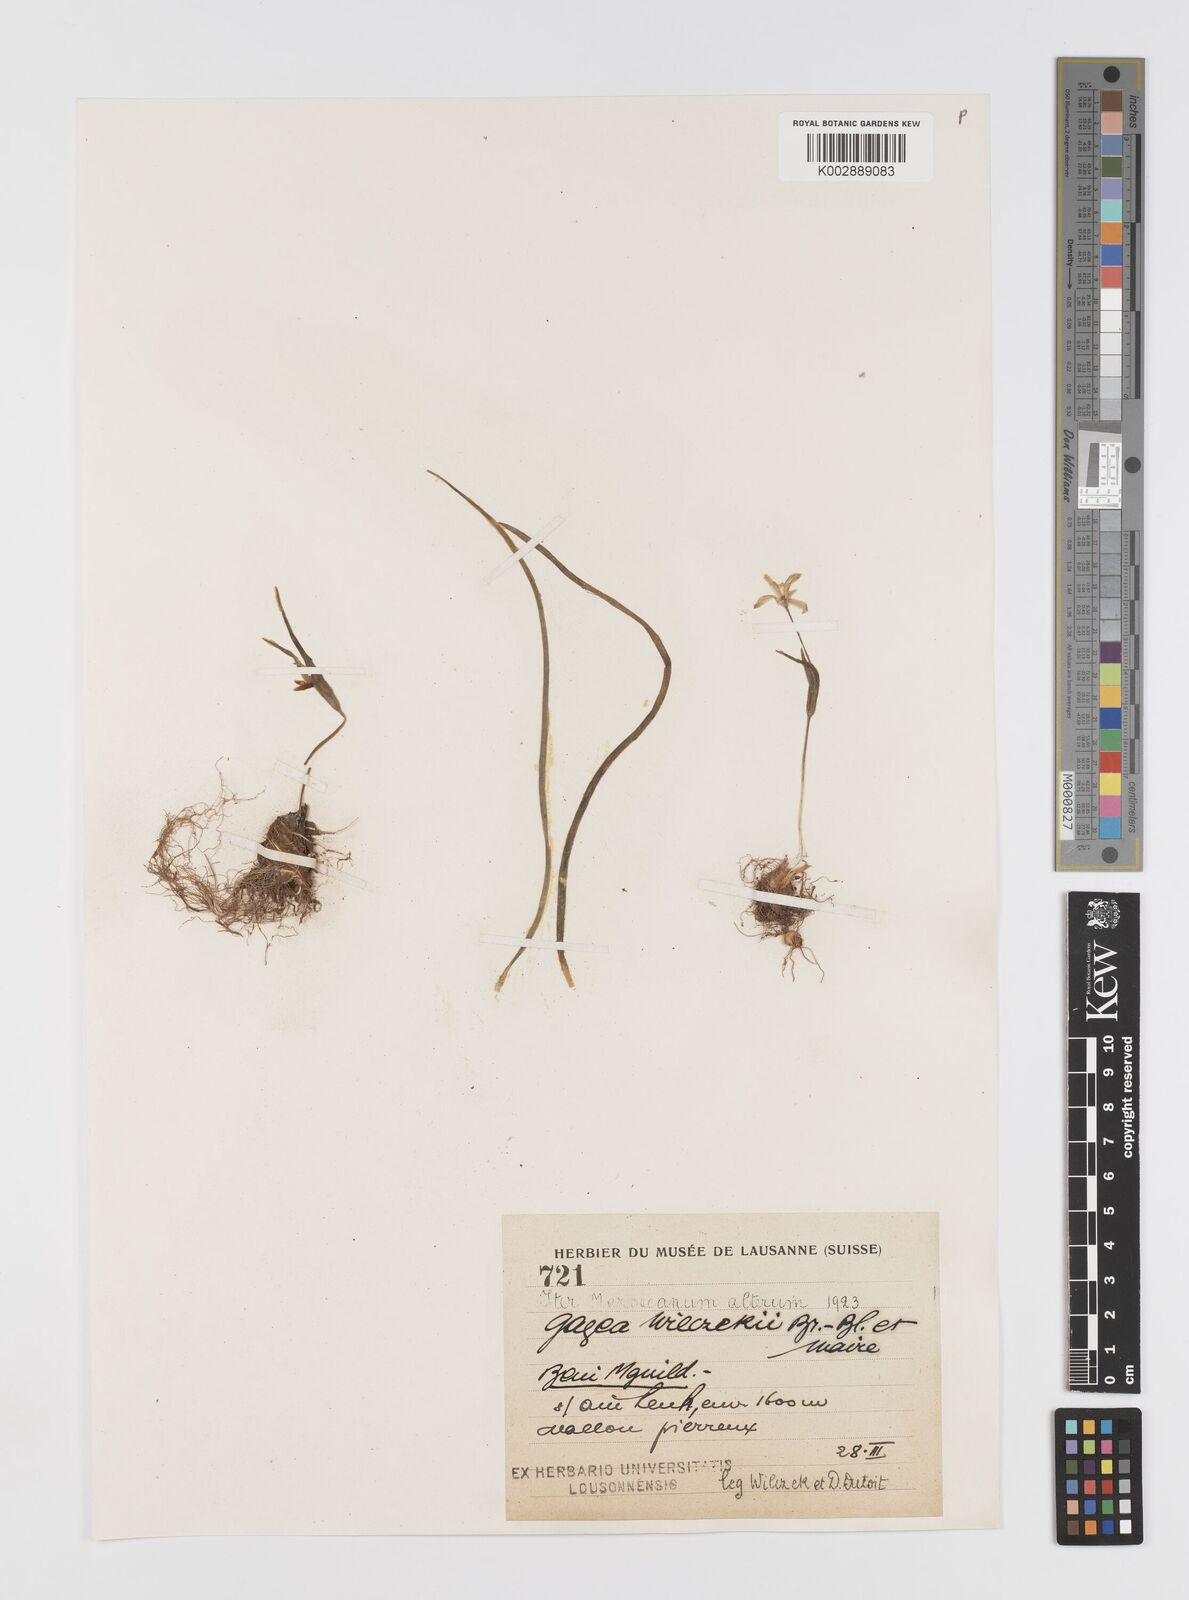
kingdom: Plantae
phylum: Tracheophyta
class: Liliopsida
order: Liliales
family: Liliaceae
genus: Gagea
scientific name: Gagea
